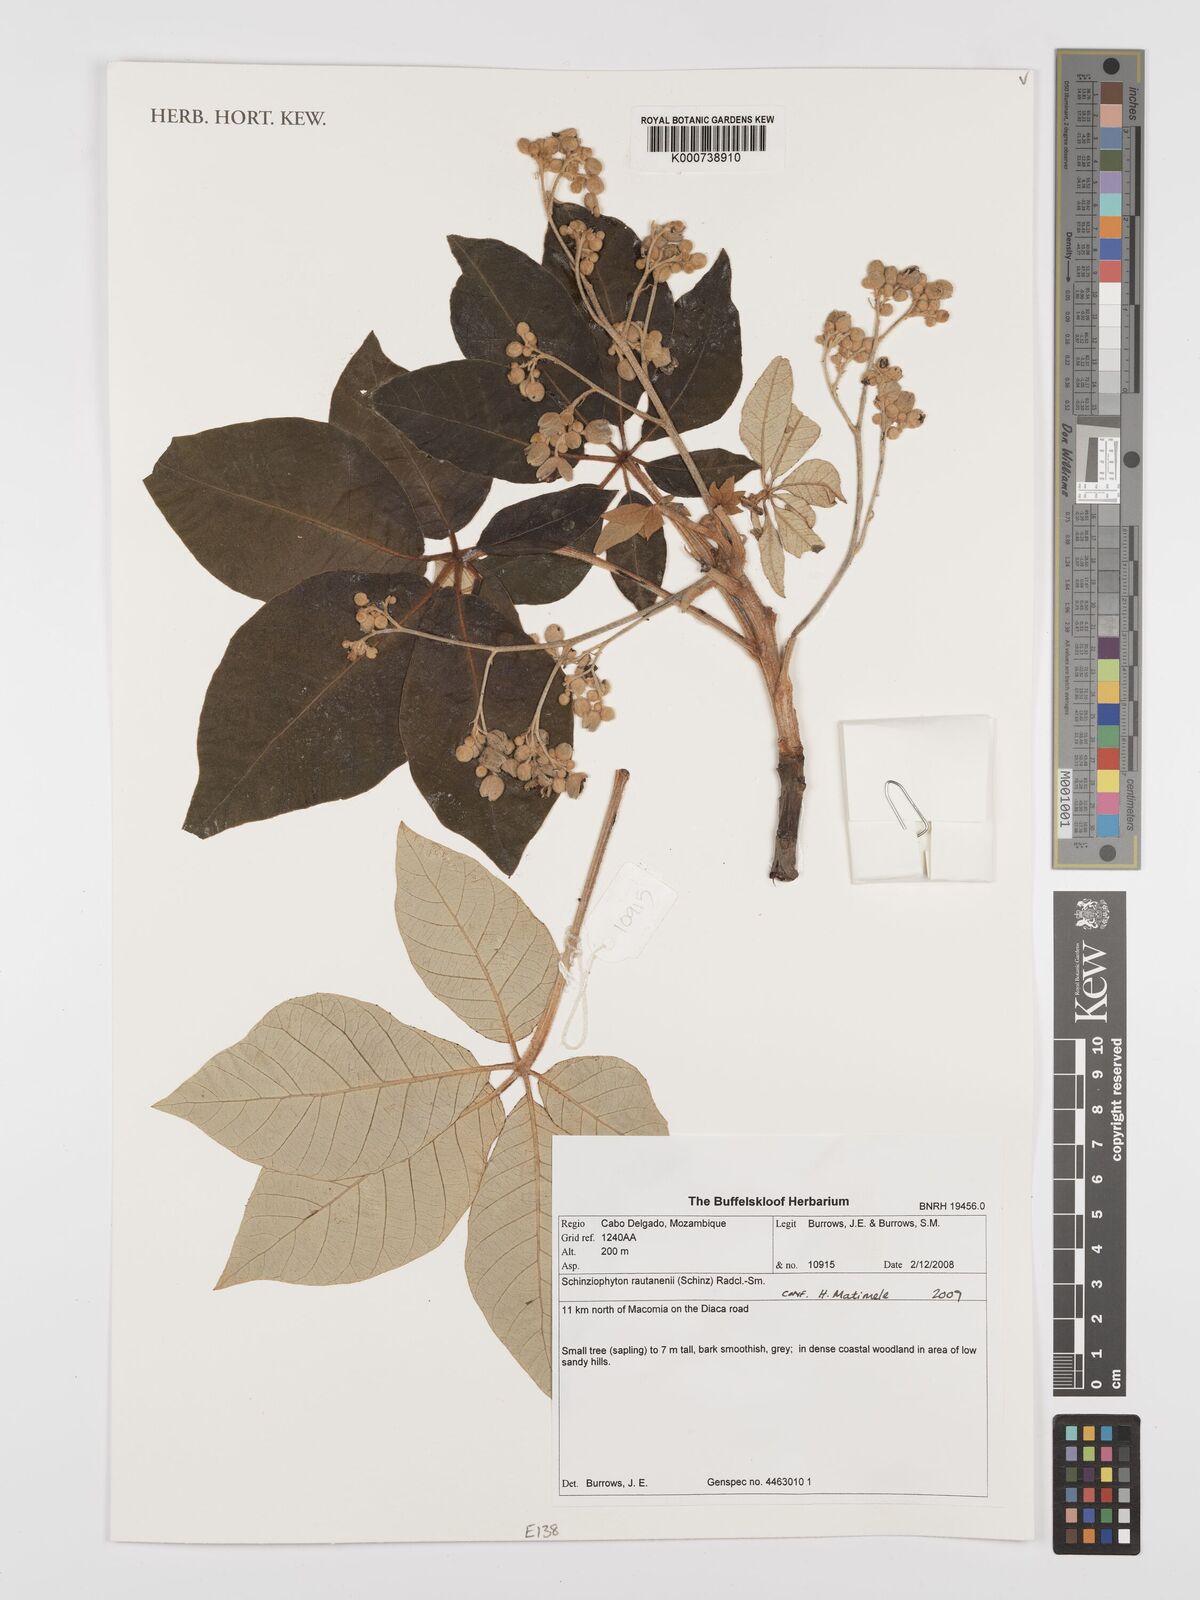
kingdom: Plantae
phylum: Tracheophyta
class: Magnoliopsida
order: Malpighiales
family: Euphorbiaceae
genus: Schinziophyton
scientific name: Schinziophyton rautanenii
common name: Manketti
